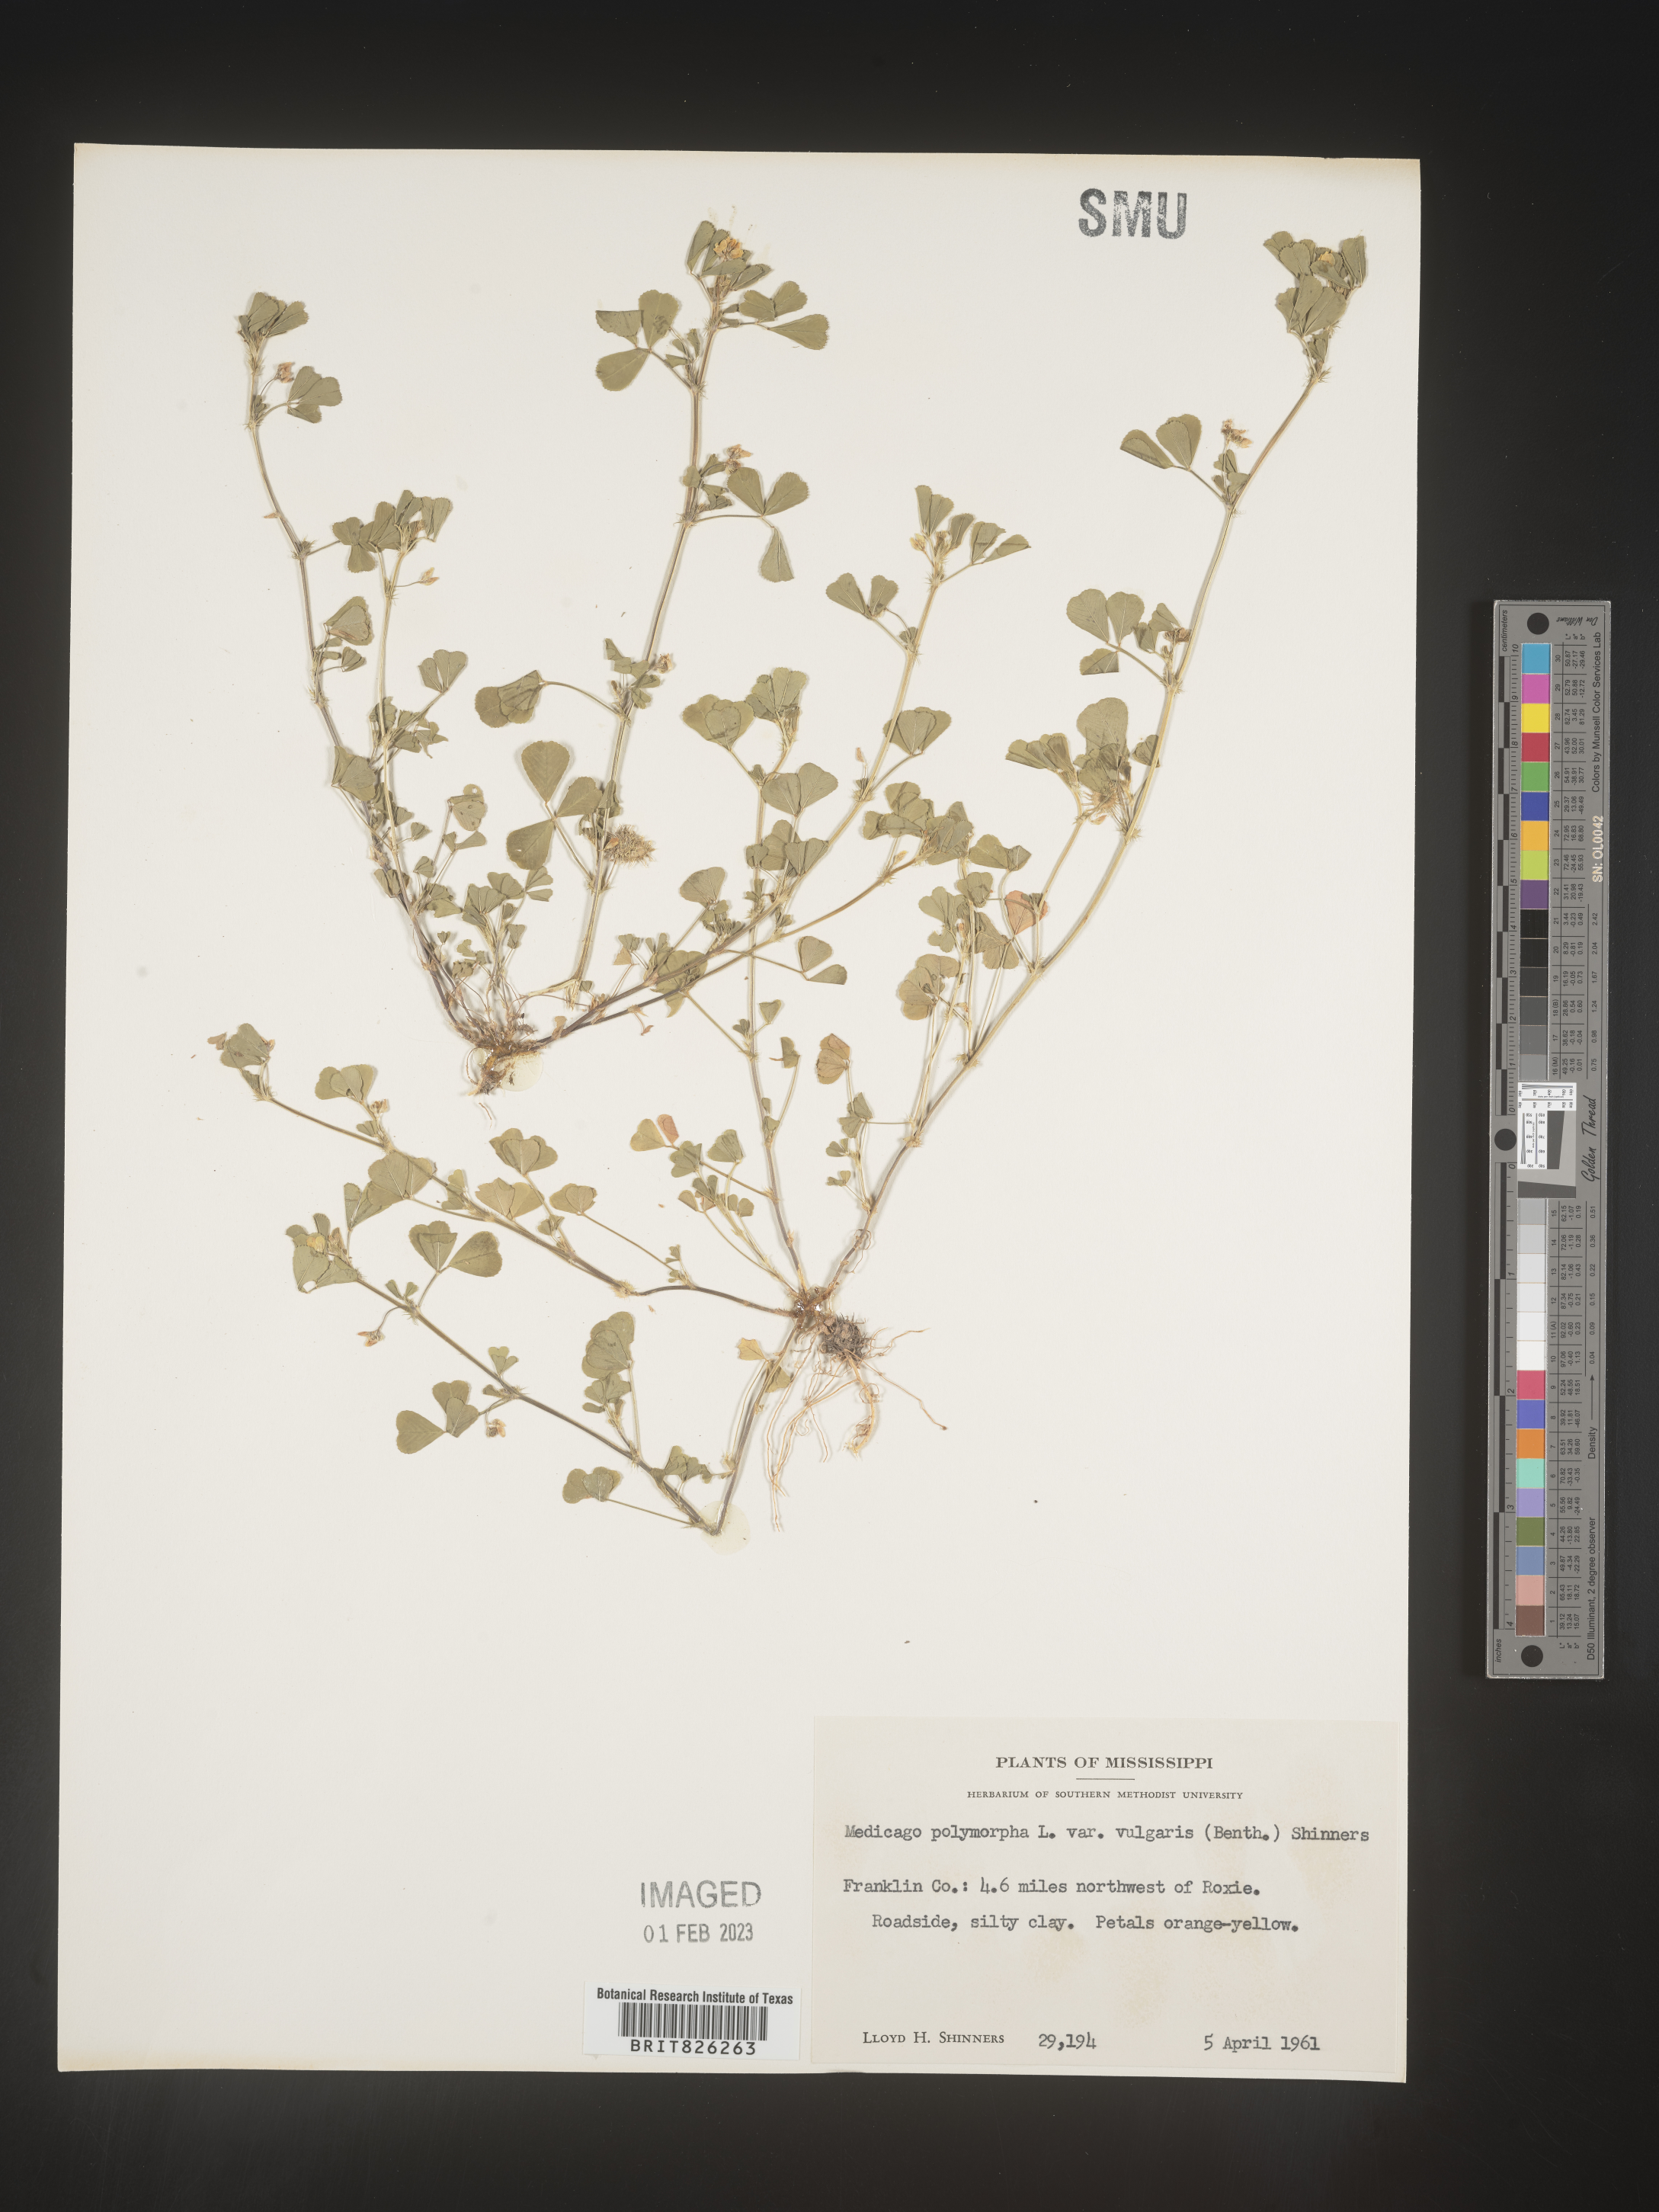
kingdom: Plantae
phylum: Tracheophyta
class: Magnoliopsida
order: Fabales
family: Fabaceae
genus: Medicago
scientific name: Medicago polymorpha
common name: Burclover
